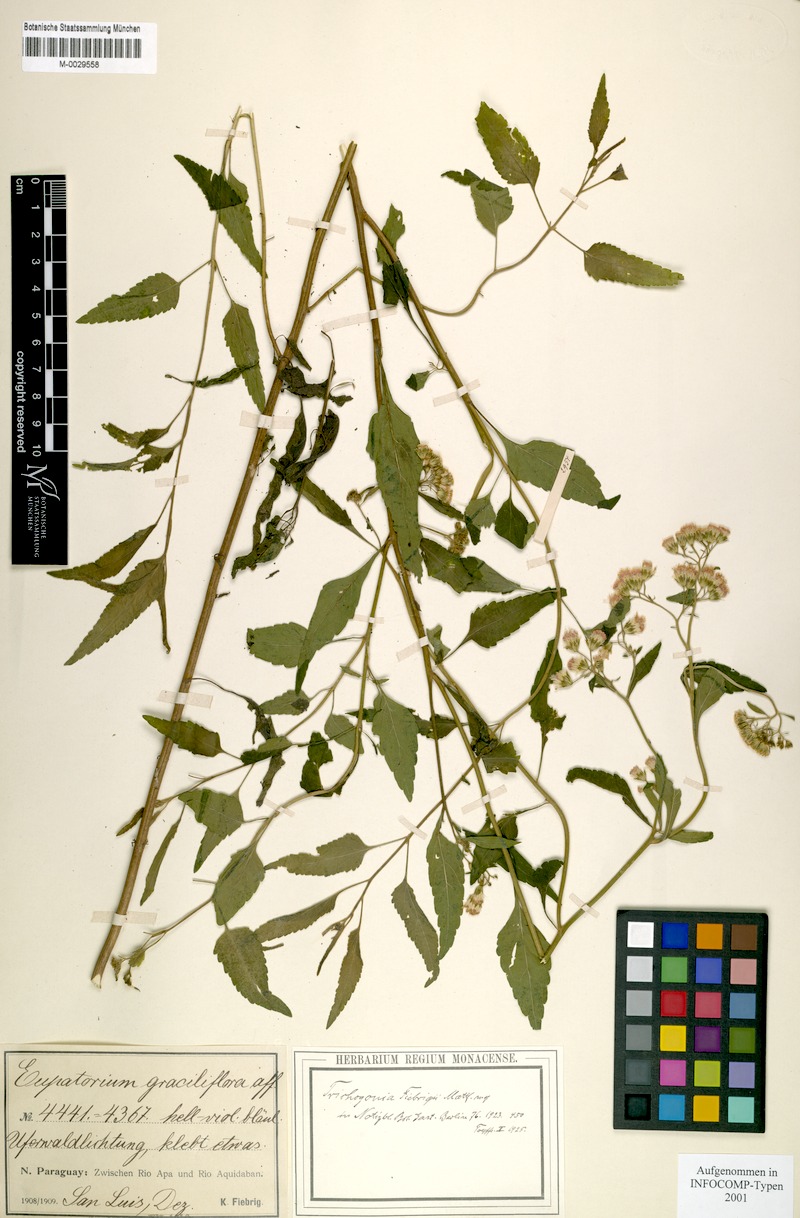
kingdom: Plantae
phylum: Tracheophyta
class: Magnoliopsida
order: Asterales
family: Asteraceae
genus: Trichogonia
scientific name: Trichogonia fiebrigii
